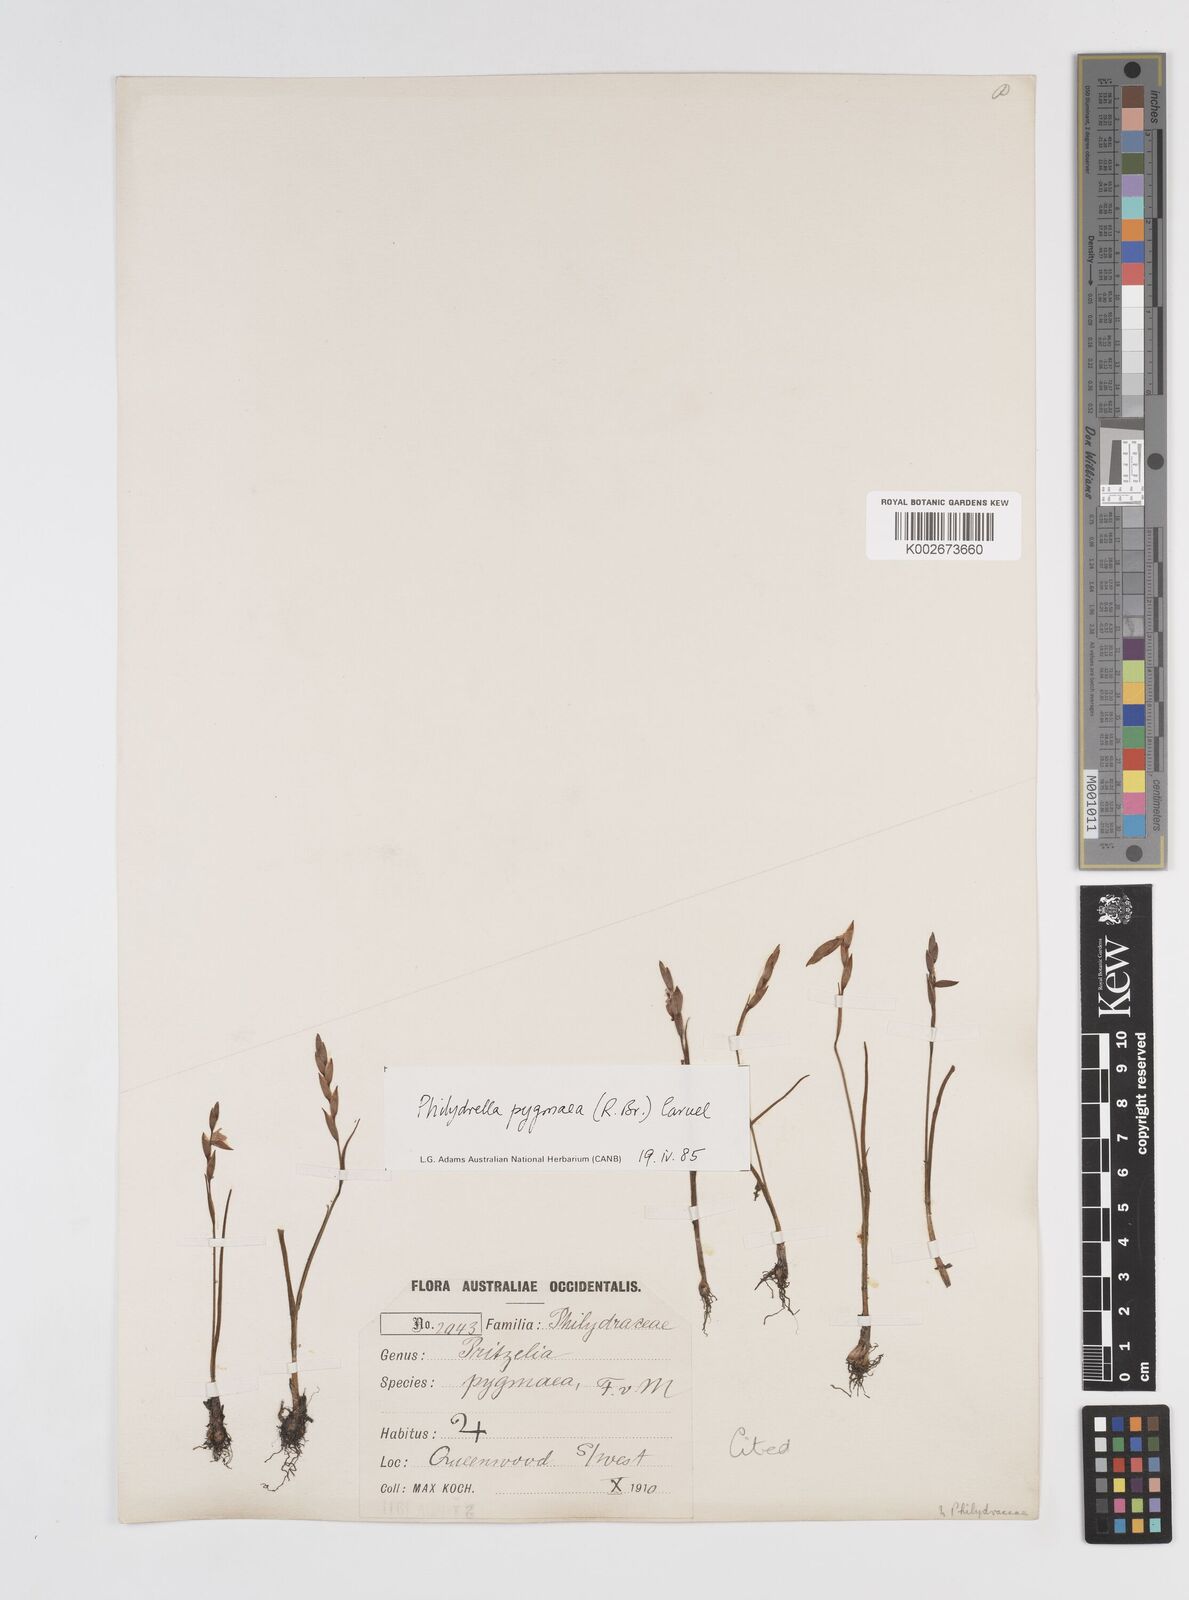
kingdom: Plantae
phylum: Tracheophyta
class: Liliopsida
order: Commelinales
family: Philydraceae
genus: Philydrella
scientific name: Philydrella pygmaea
